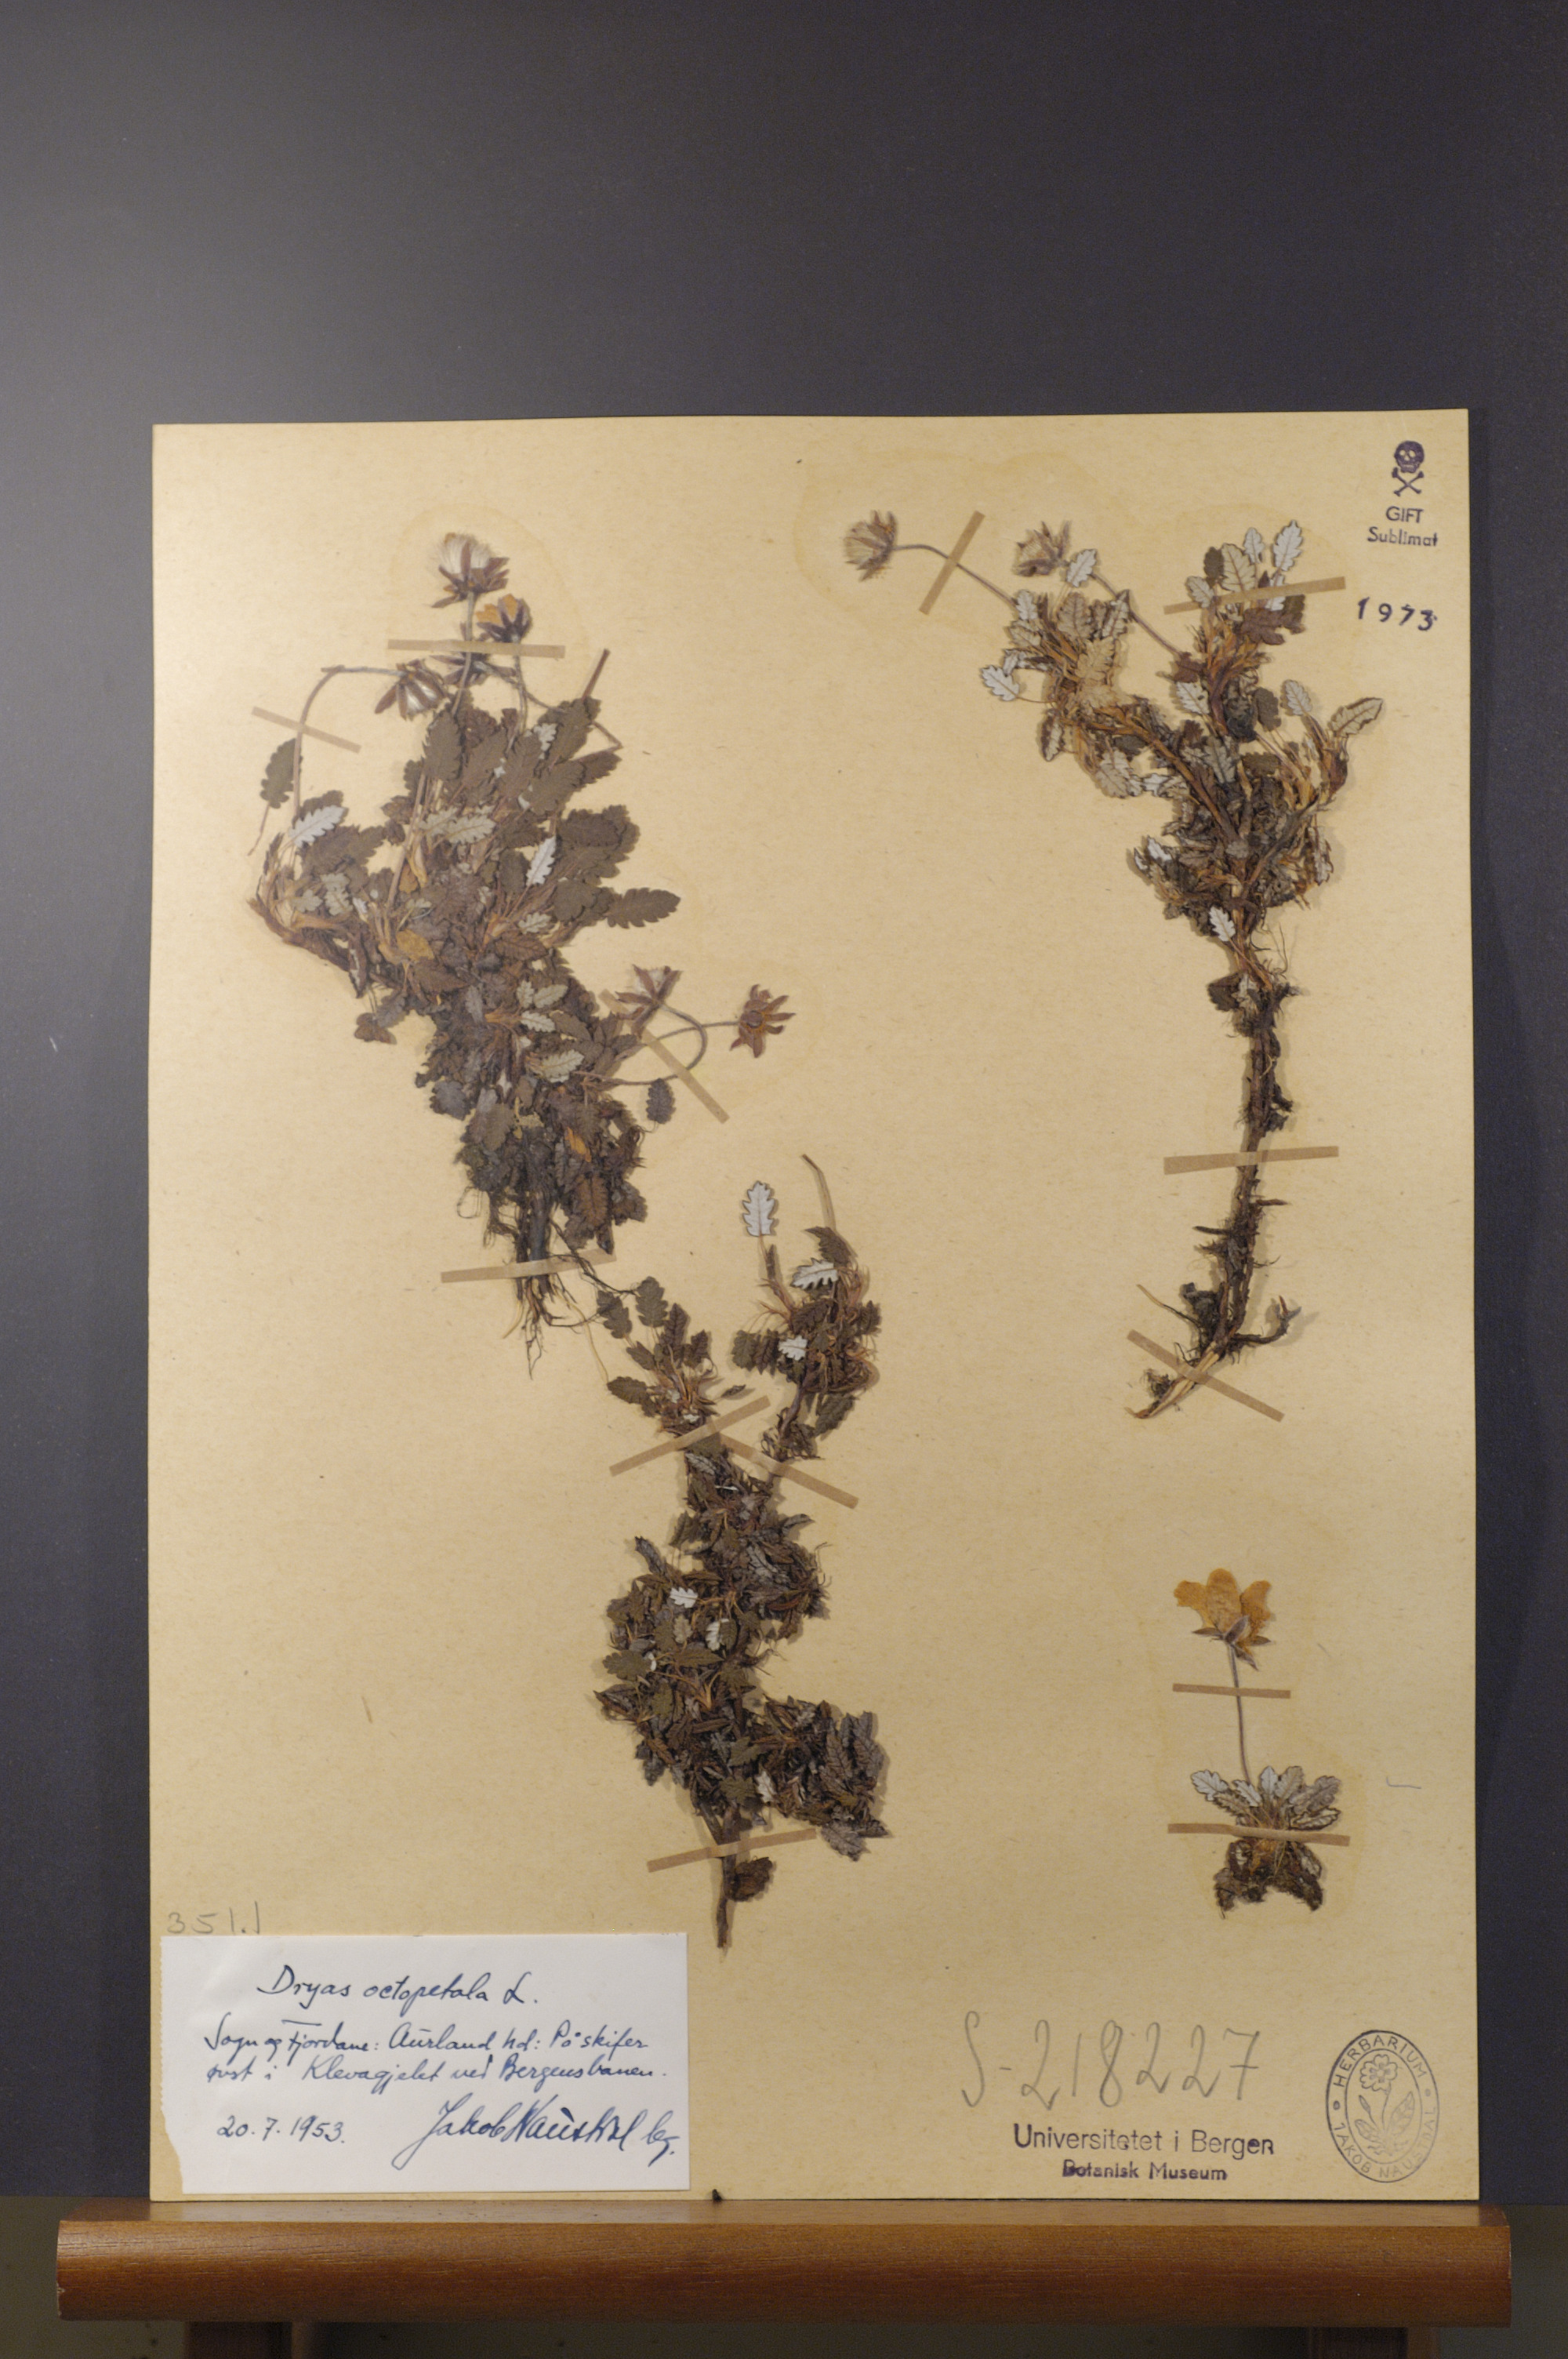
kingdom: Plantae
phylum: Tracheophyta
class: Magnoliopsida
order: Rosales
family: Rosaceae
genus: Dryas
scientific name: Dryas octopetala
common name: Eight-petal mountain-avens
